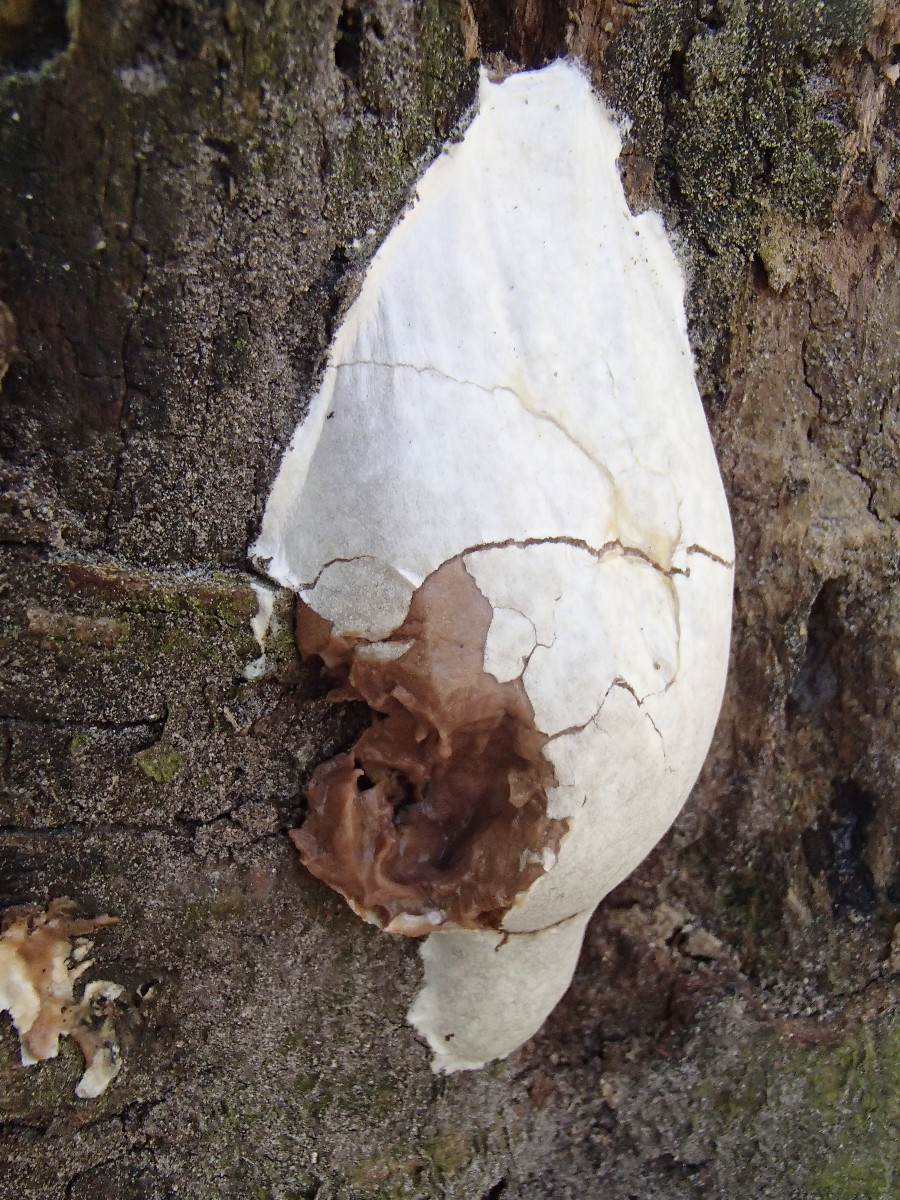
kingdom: Protozoa
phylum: Mycetozoa
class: Myxomycetes
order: Cribrariales
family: Tubiferaceae
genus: Reticularia
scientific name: Reticularia lycoperdon
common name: skinnende støvpude
